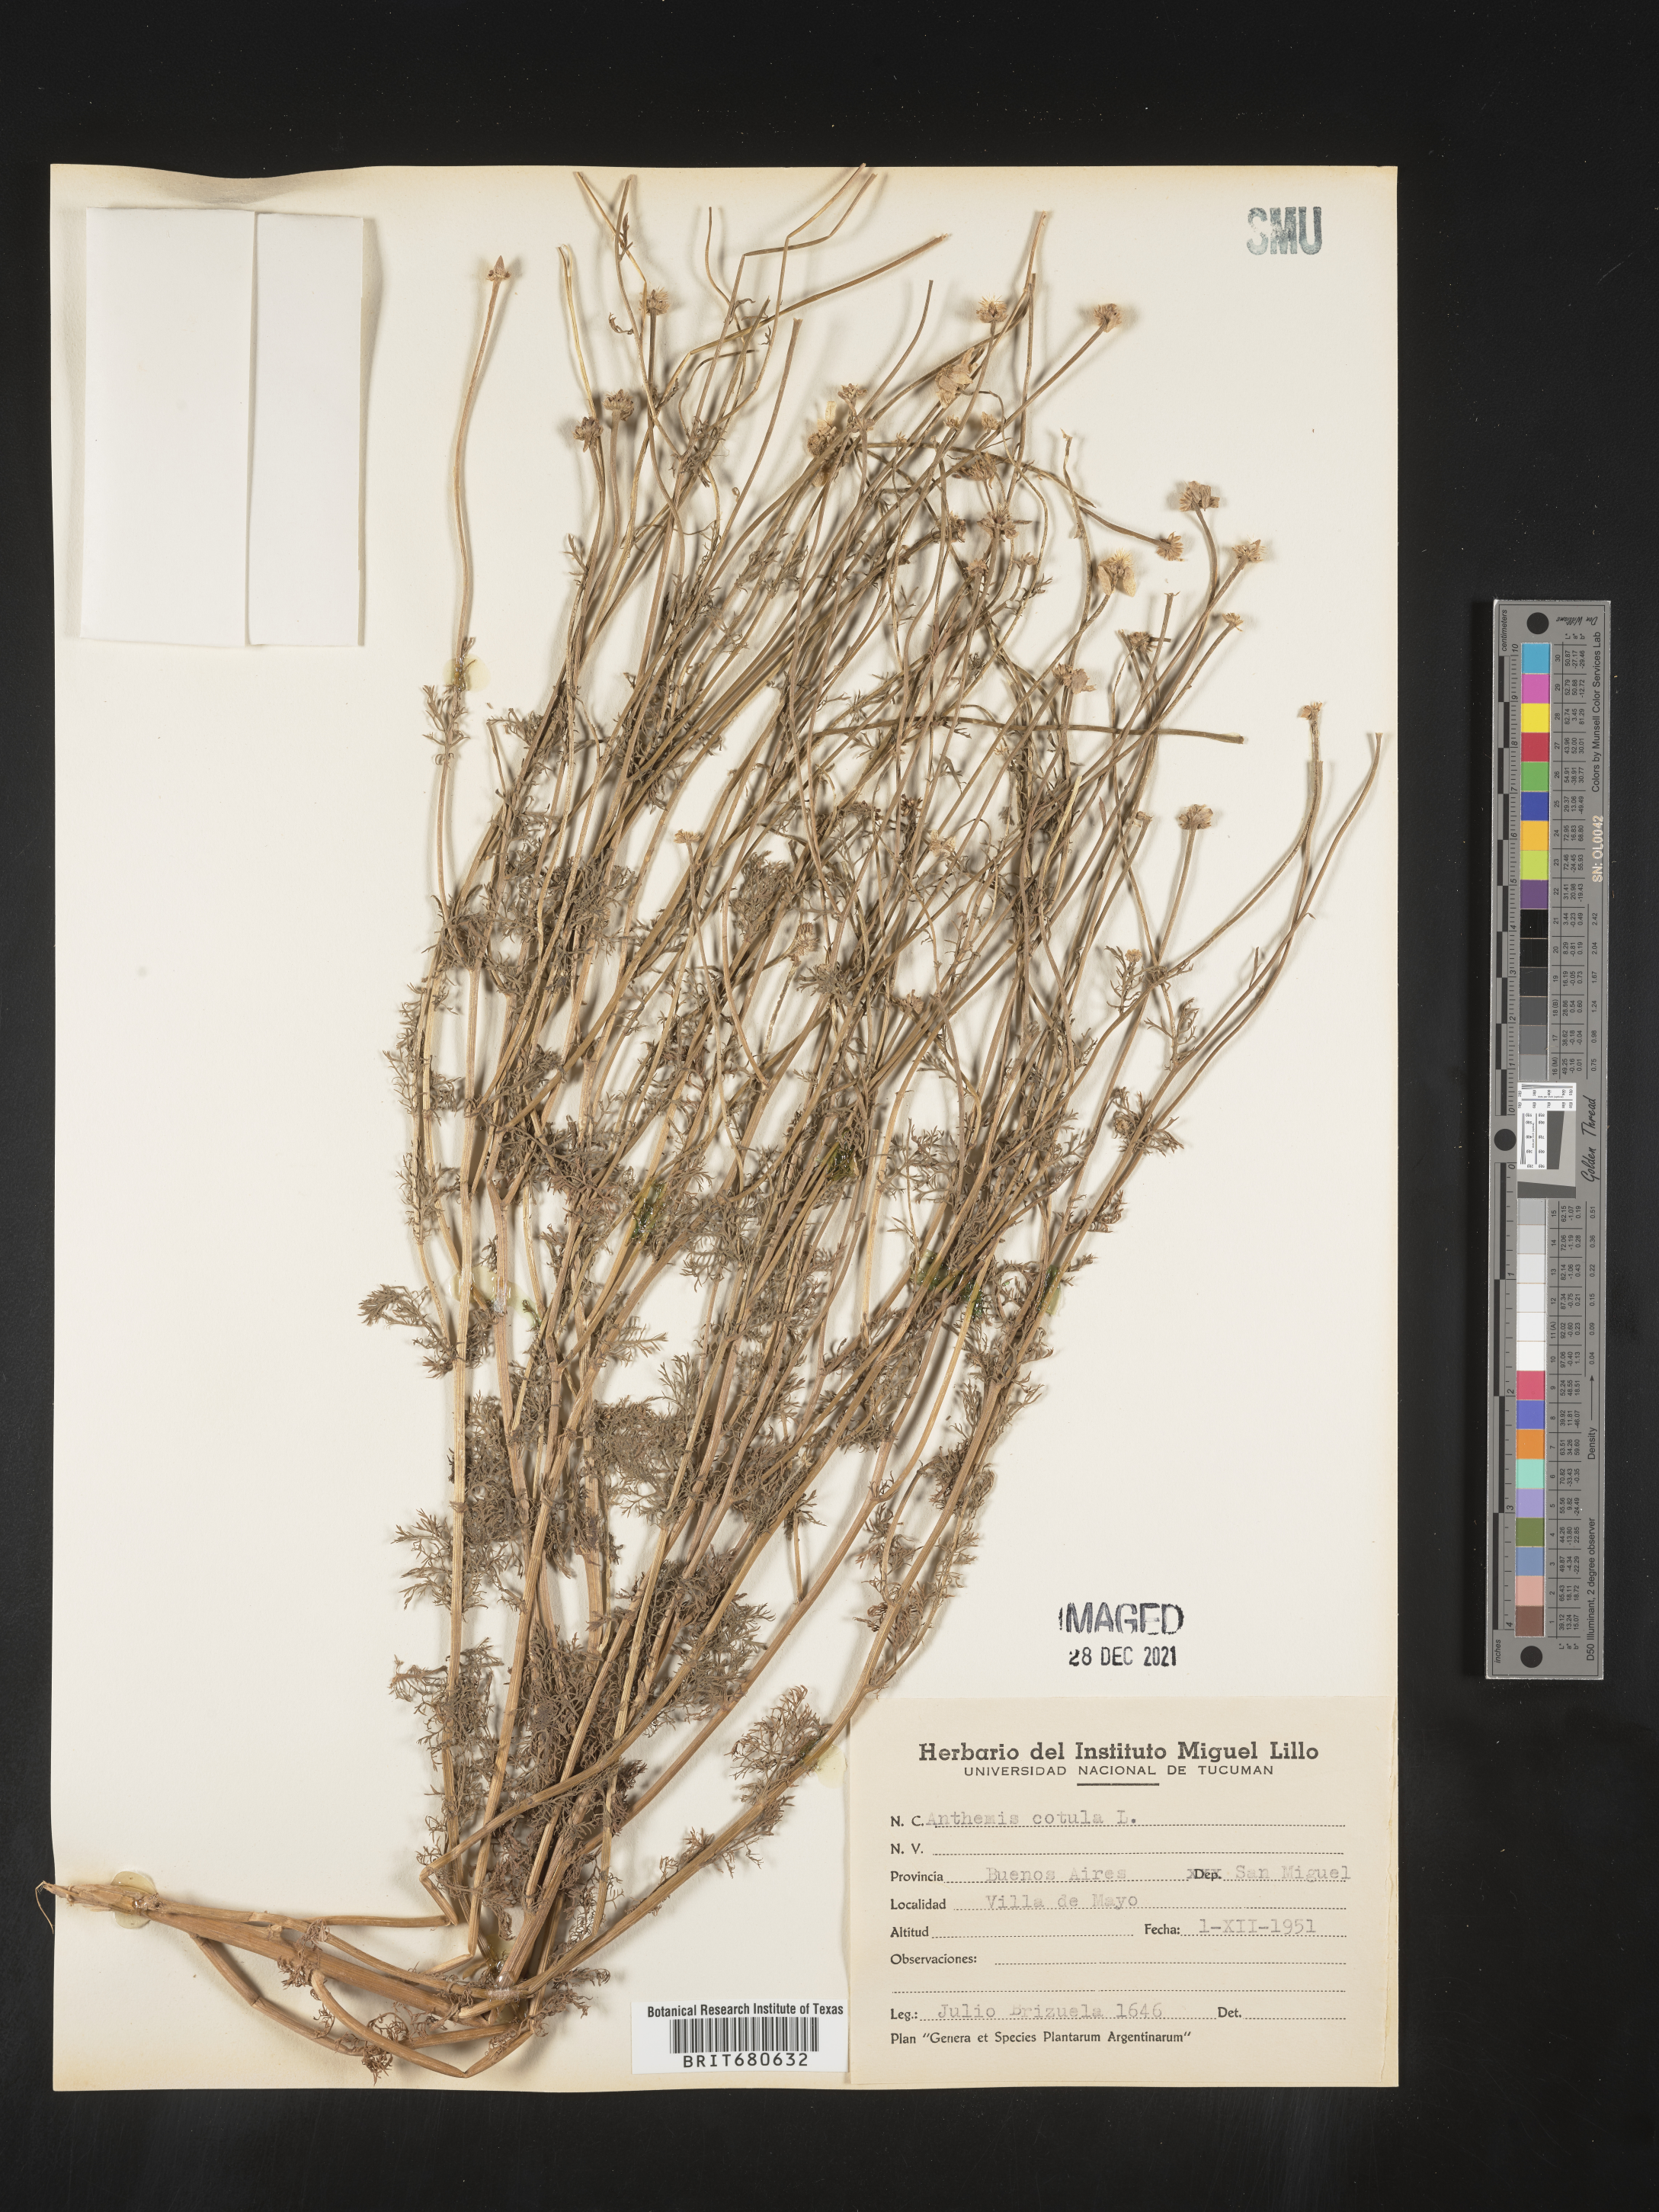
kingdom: Plantae
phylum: Tracheophyta
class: Magnoliopsida
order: Asterales
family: Asteraceae
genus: Anthemis
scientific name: Anthemis
